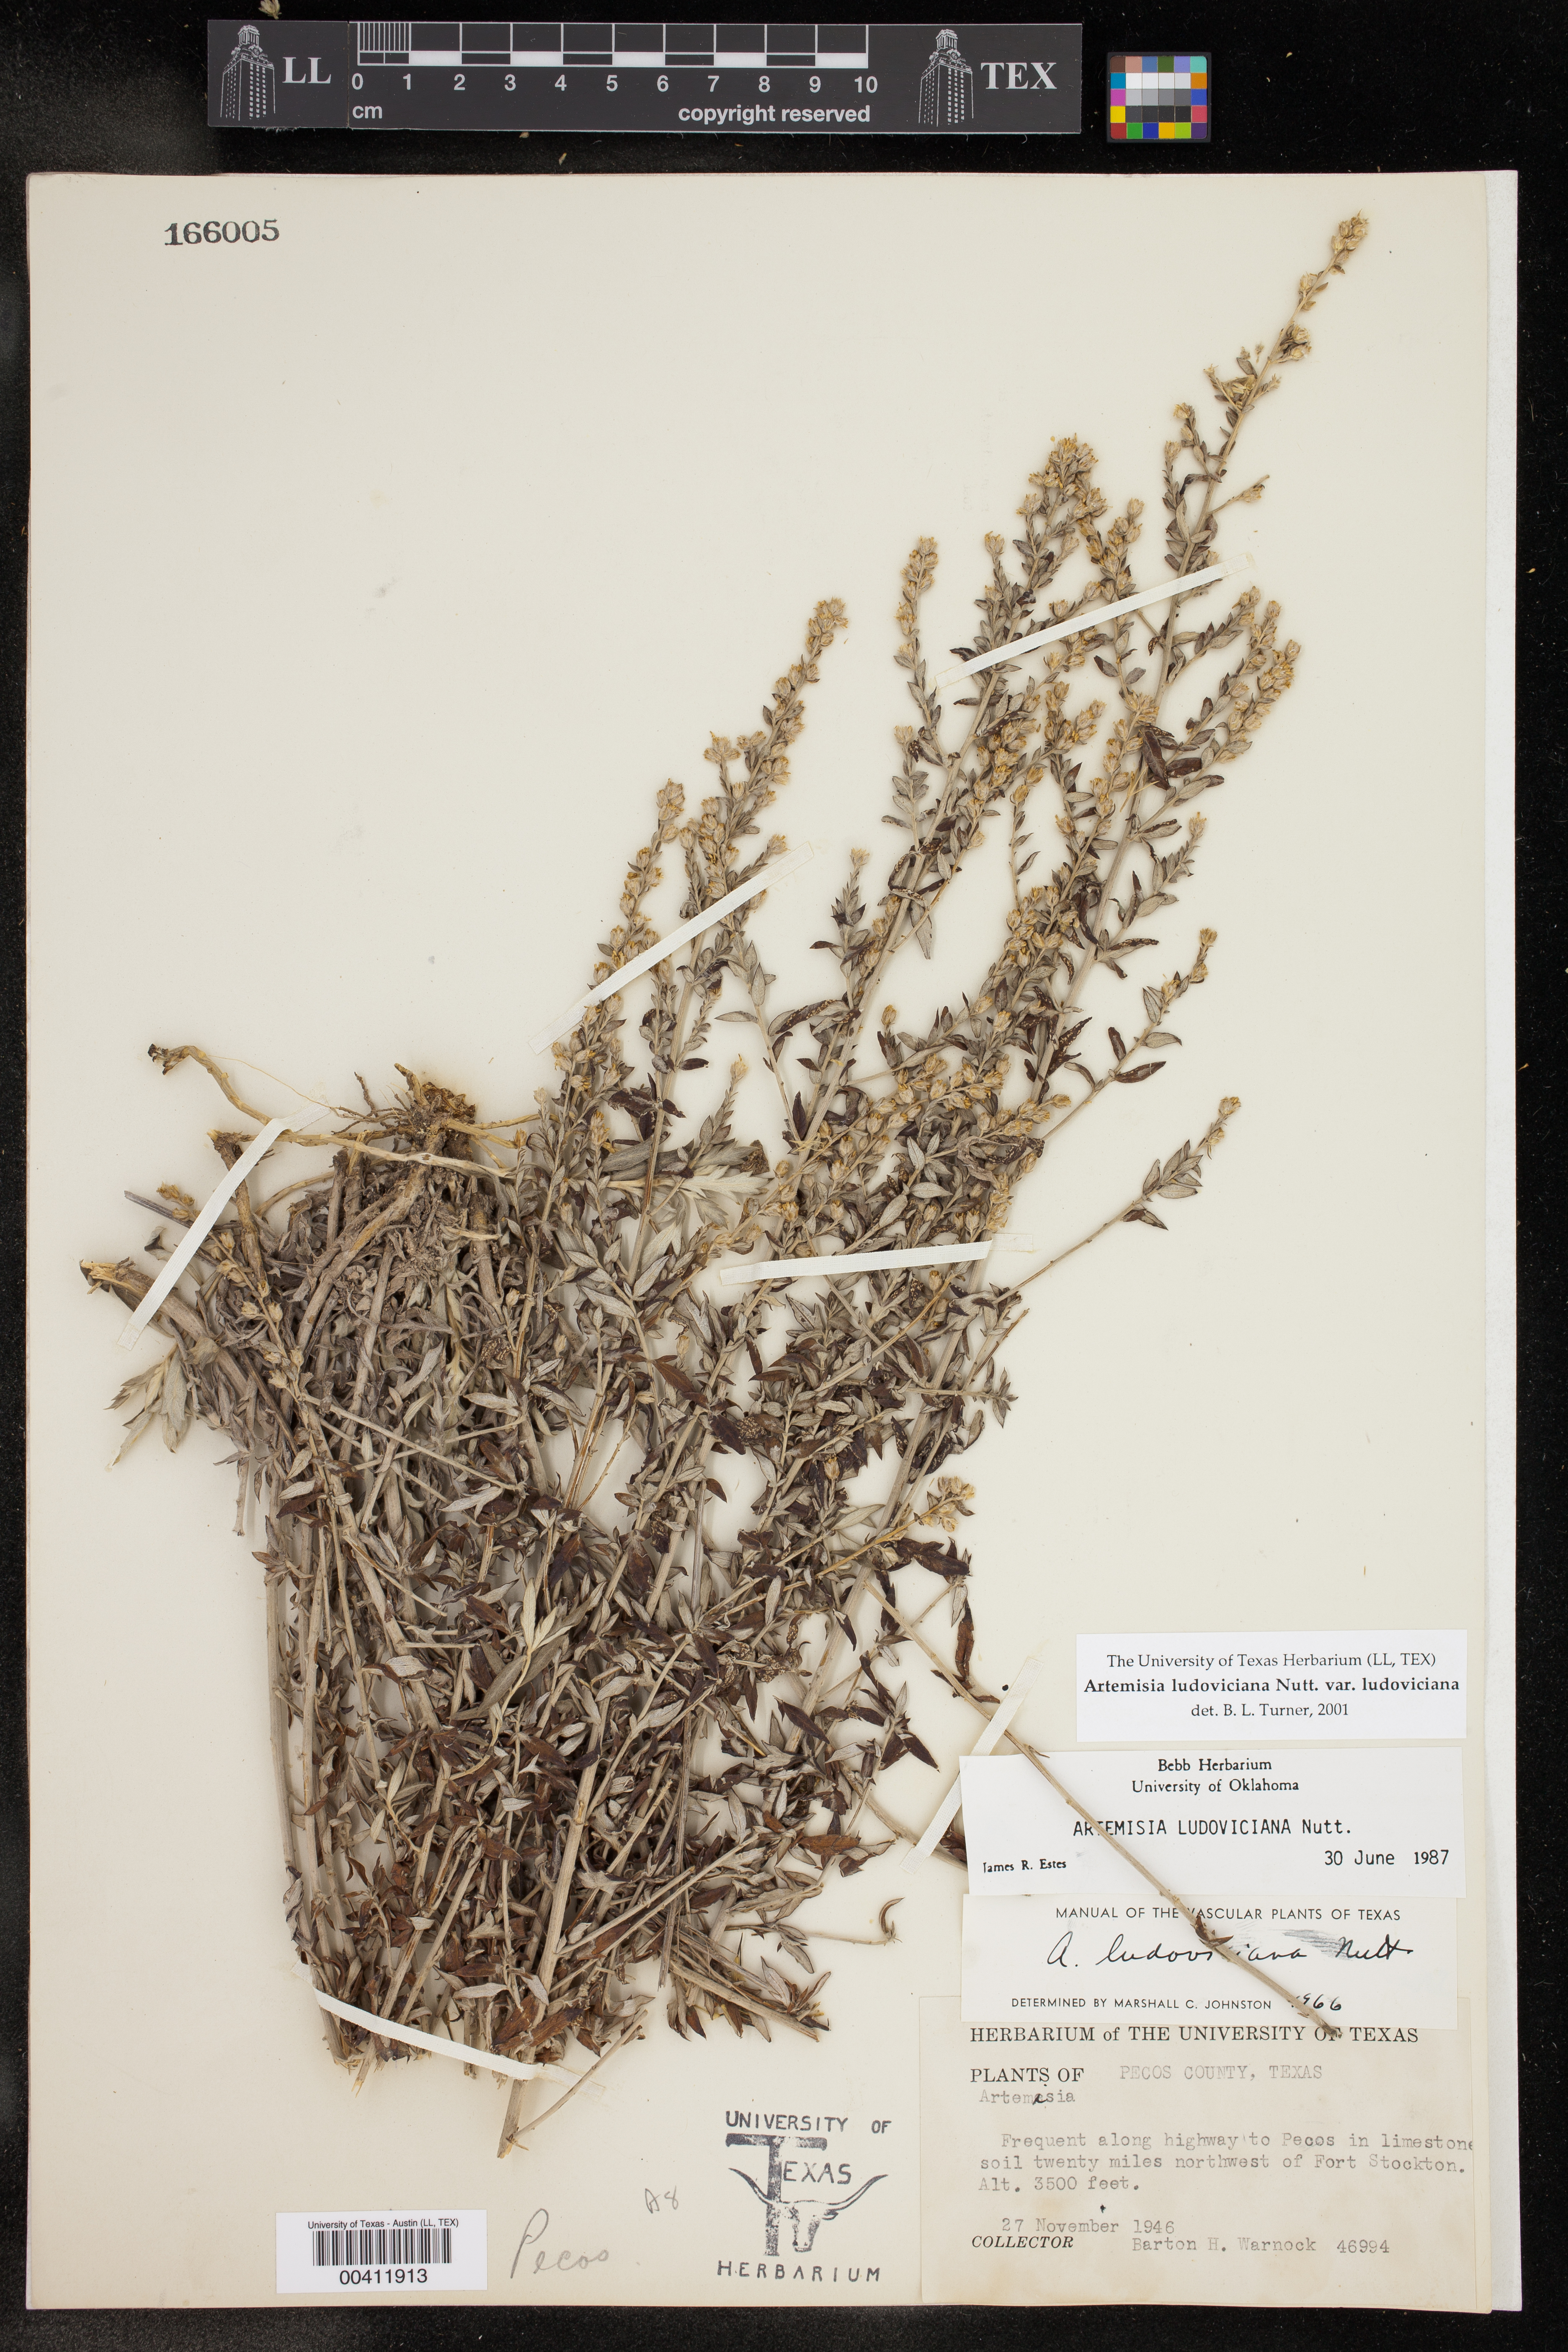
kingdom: Plantae
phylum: Tracheophyta
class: Magnoliopsida
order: Asterales
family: Asteraceae
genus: Artemisia
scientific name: Artemisia ludoviciana
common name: Western mugwort
